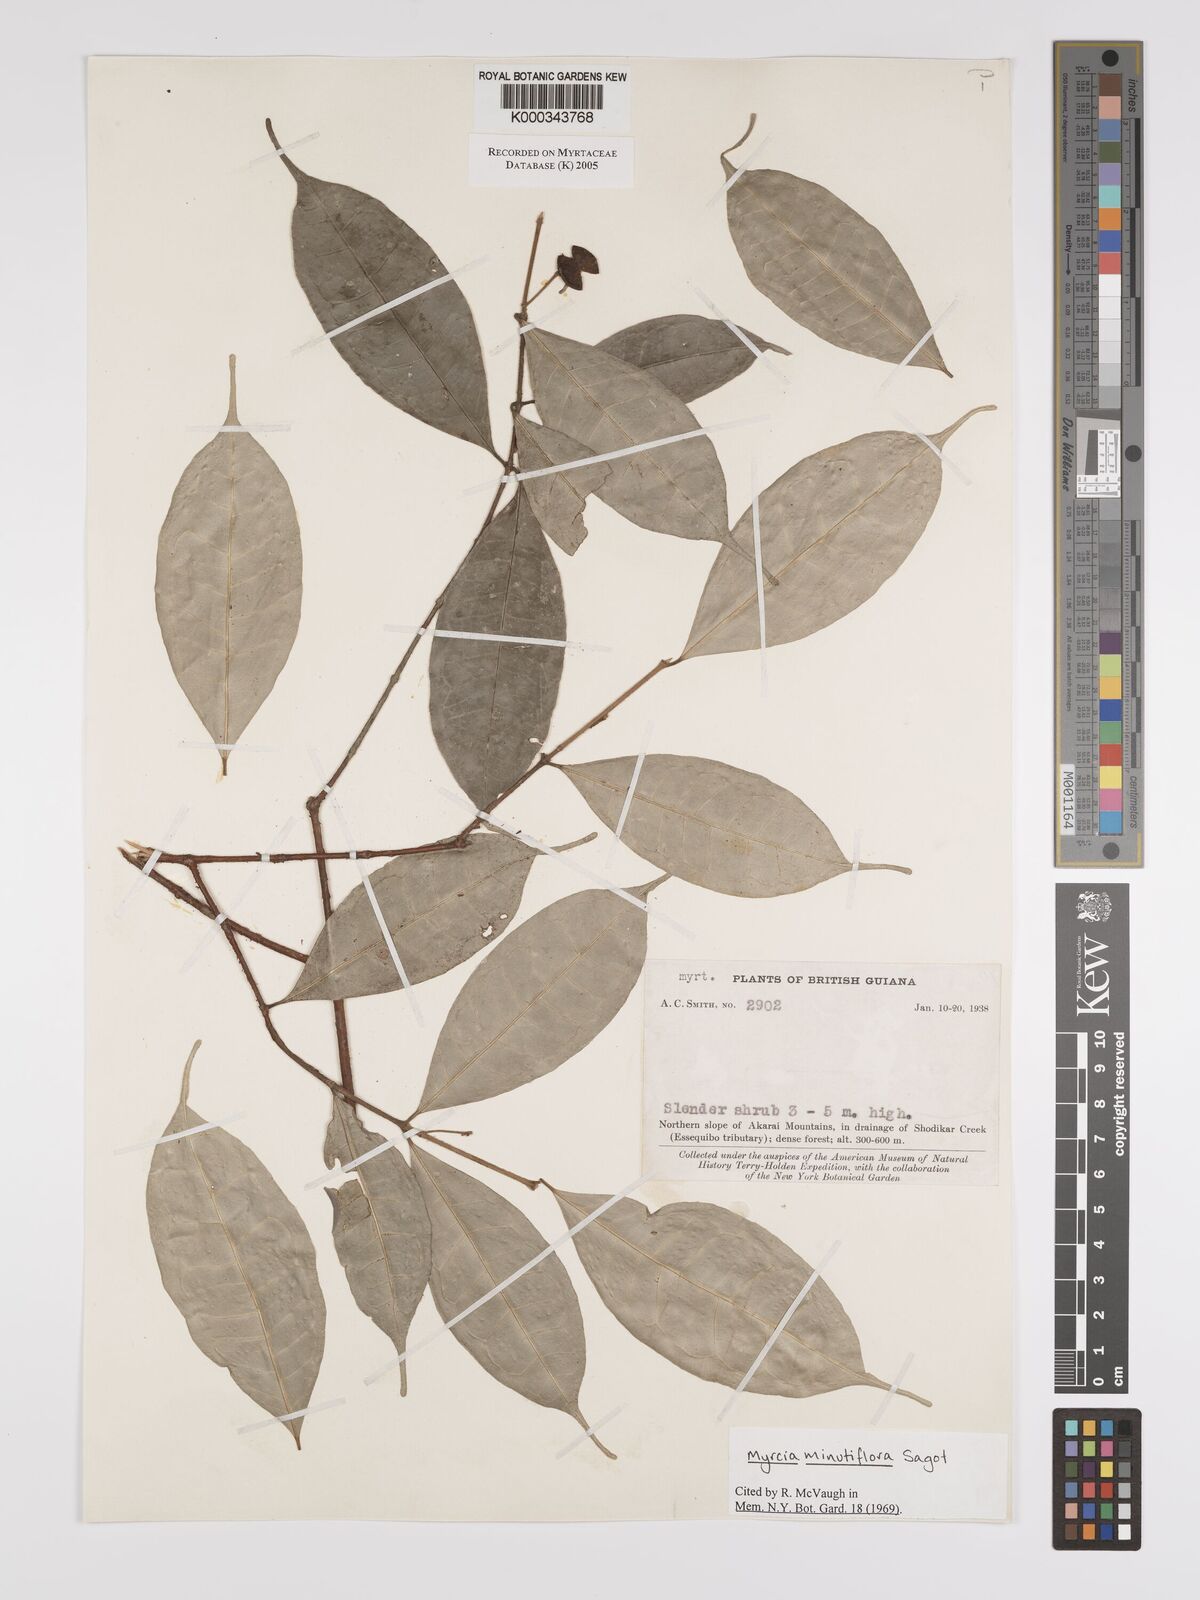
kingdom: Plantae
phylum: Tracheophyta
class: Magnoliopsida
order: Myrtales
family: Myrtaceae
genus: Myrcia
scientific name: Myrcia minutiflora
